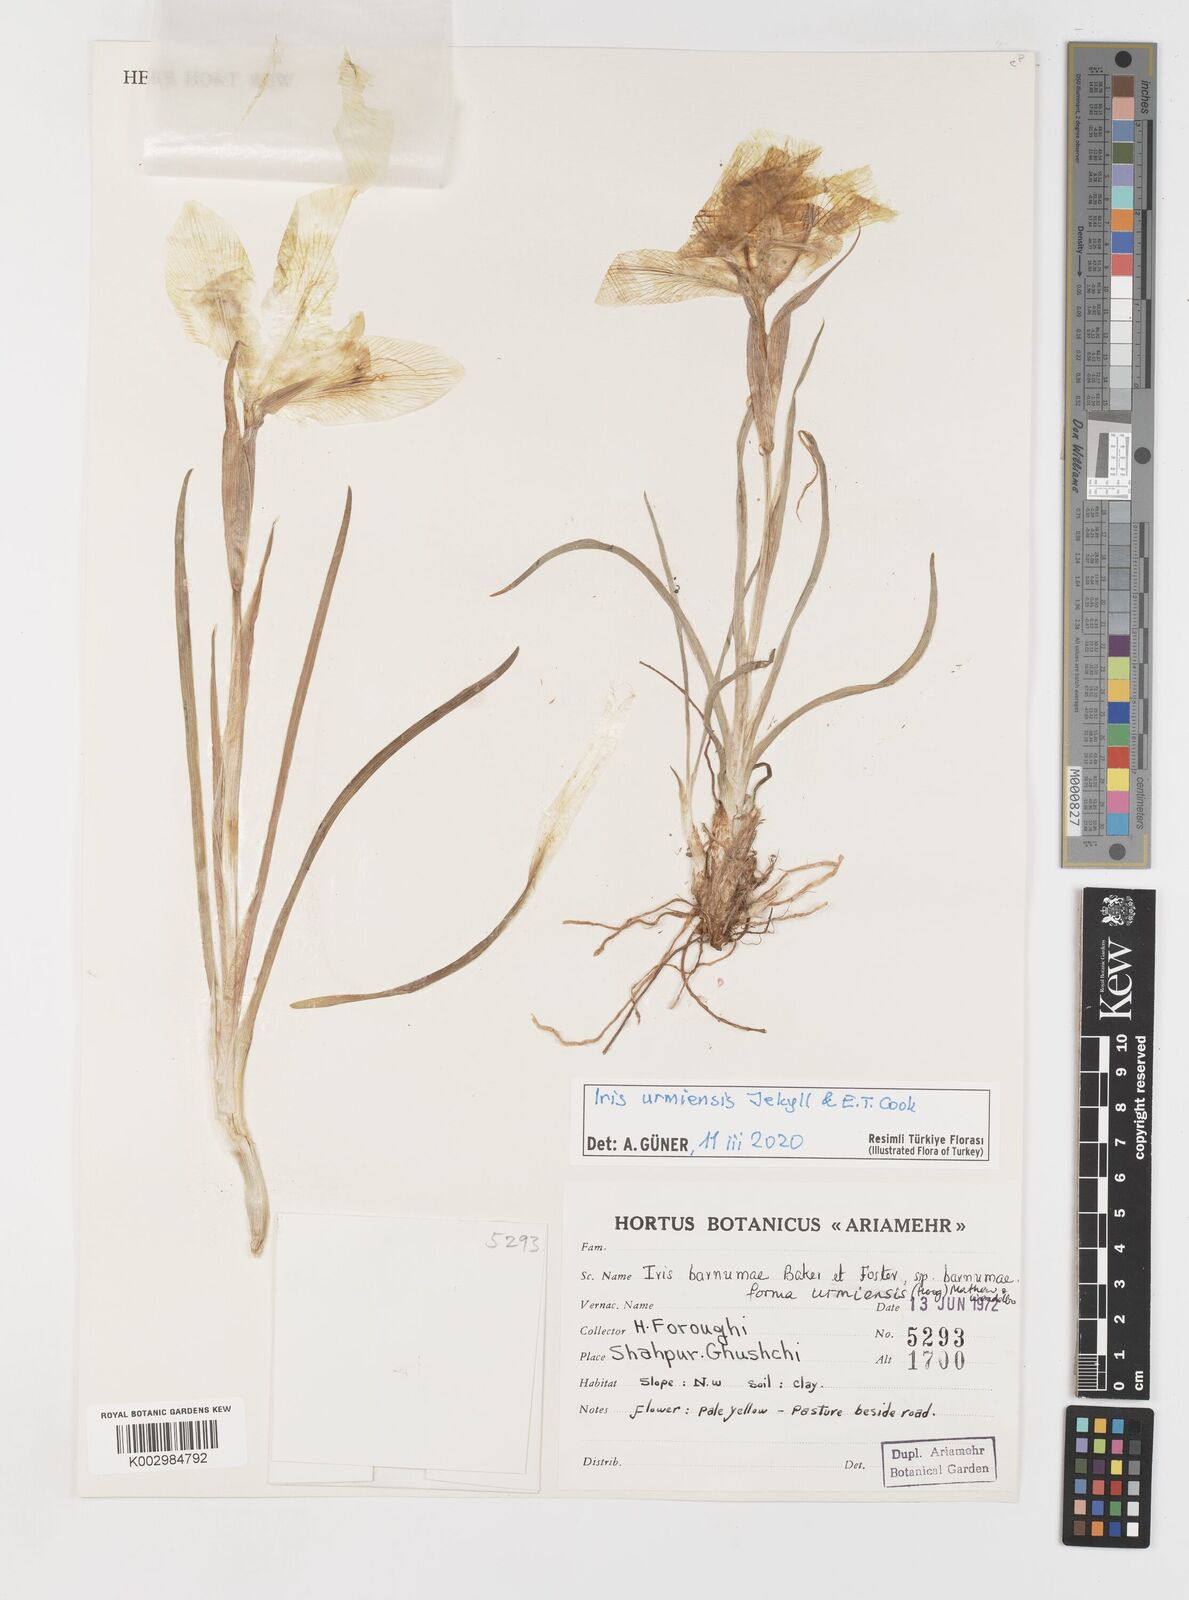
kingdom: Plantae
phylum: Tracheophyta
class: Liliopsida
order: Asparagales
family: Iridaceae
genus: Iris
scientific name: Iris polakii
